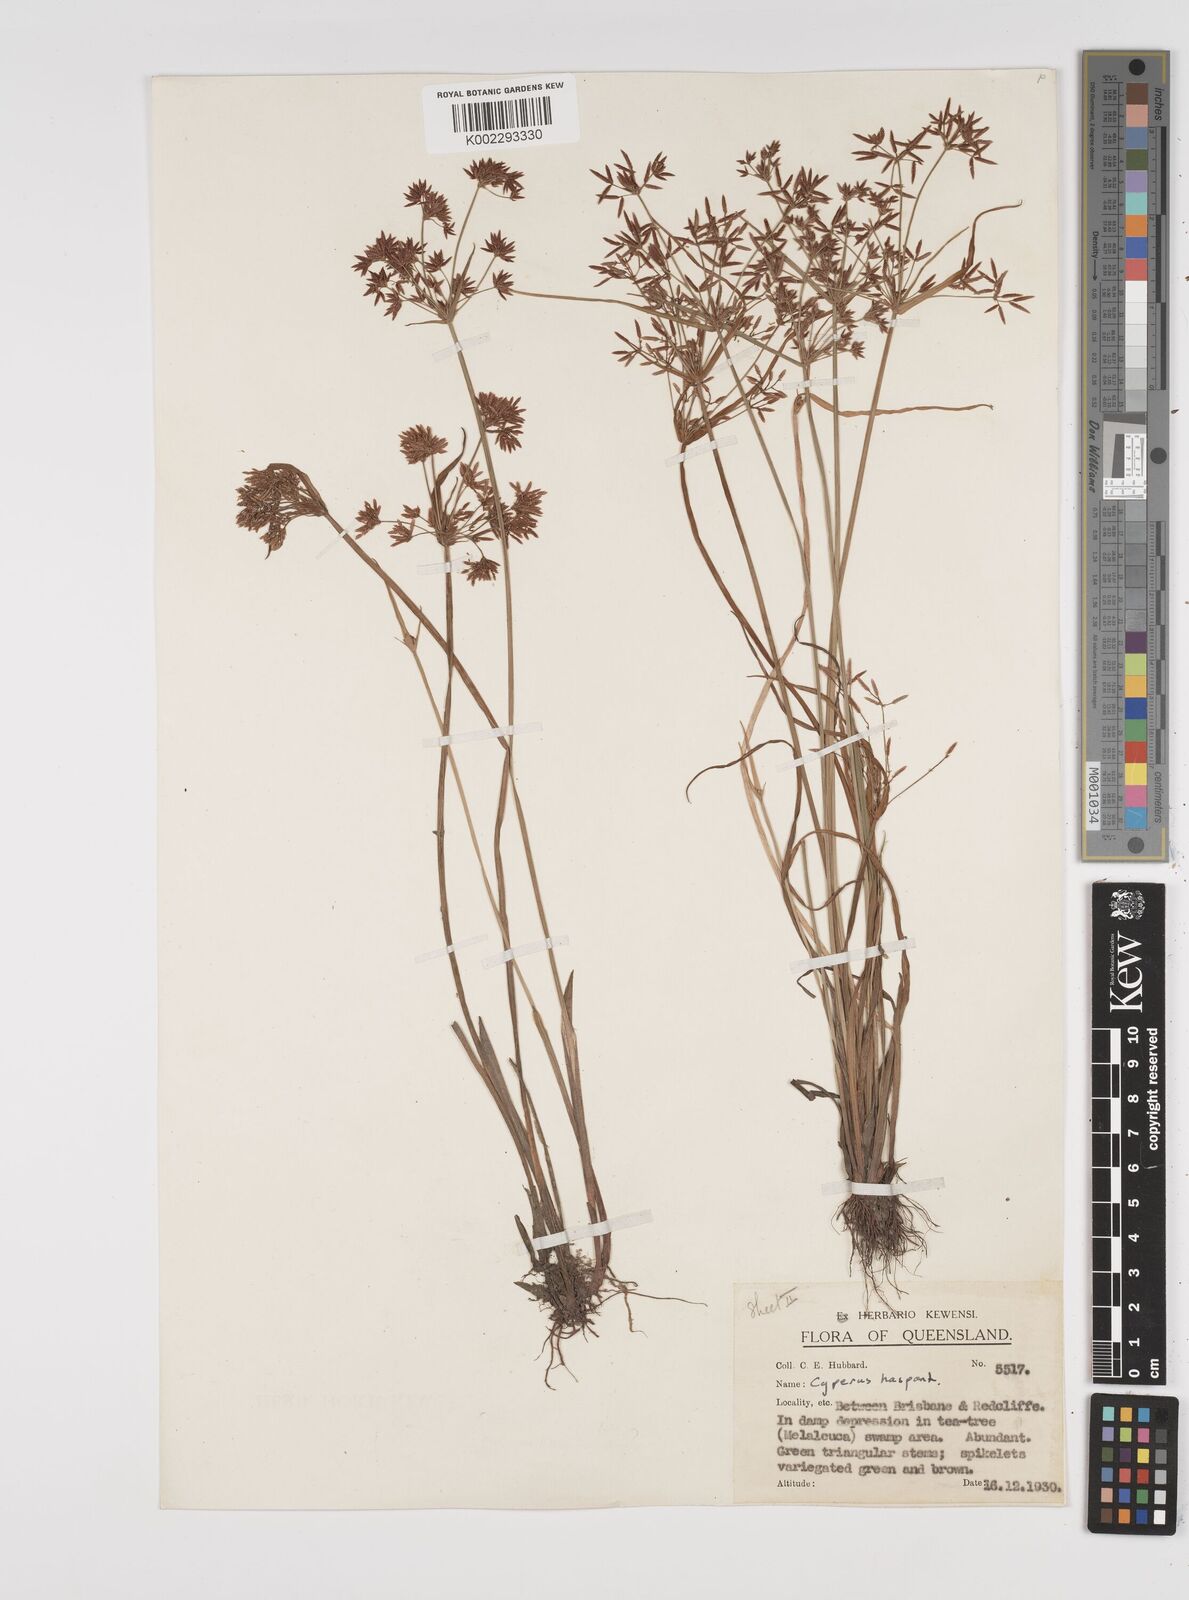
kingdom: Plantae
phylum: Tracheophyta
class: Liliopsida
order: Poales
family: Cyperaceae
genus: Cyperus
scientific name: Cyperus haspan
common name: Haspan flatsedge
